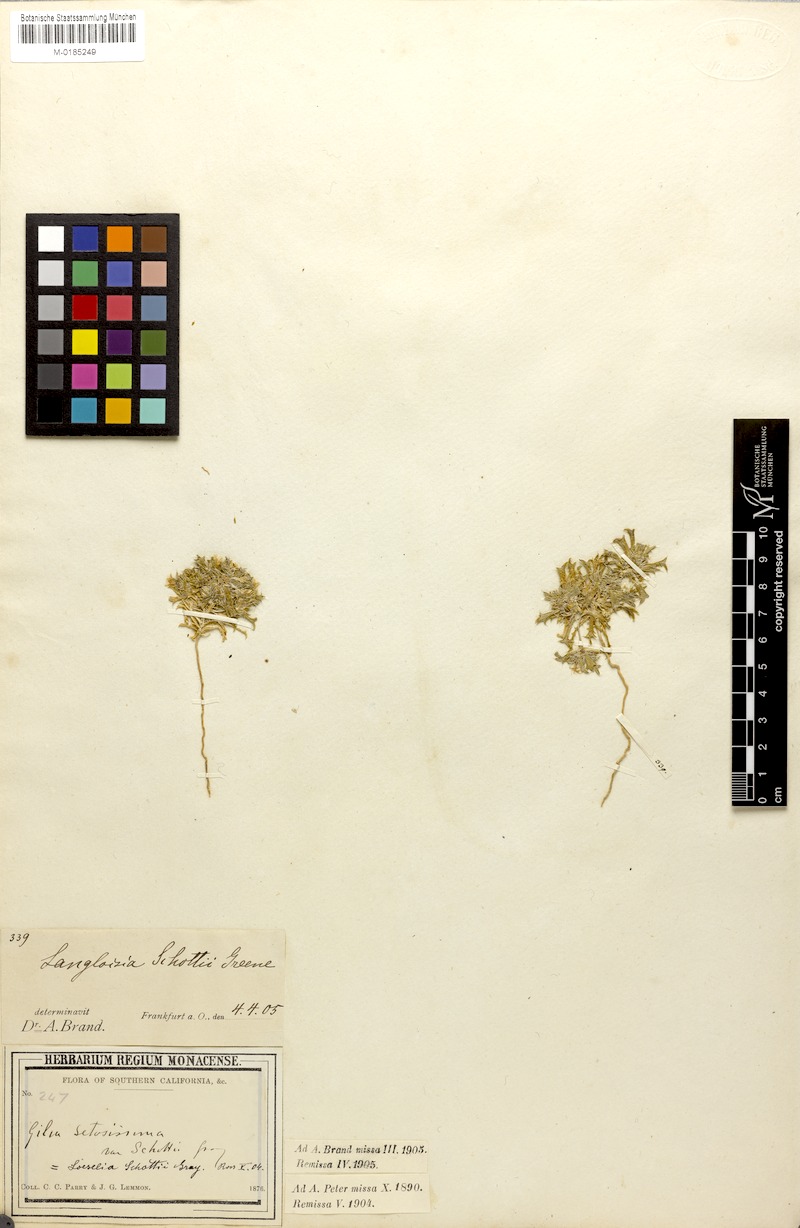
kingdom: Plantae
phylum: Tracheophyta
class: Magnoliopsida
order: Ericales
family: Polemoniaceae
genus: Loeseliastrum
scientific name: Loeseliastrum schottii
